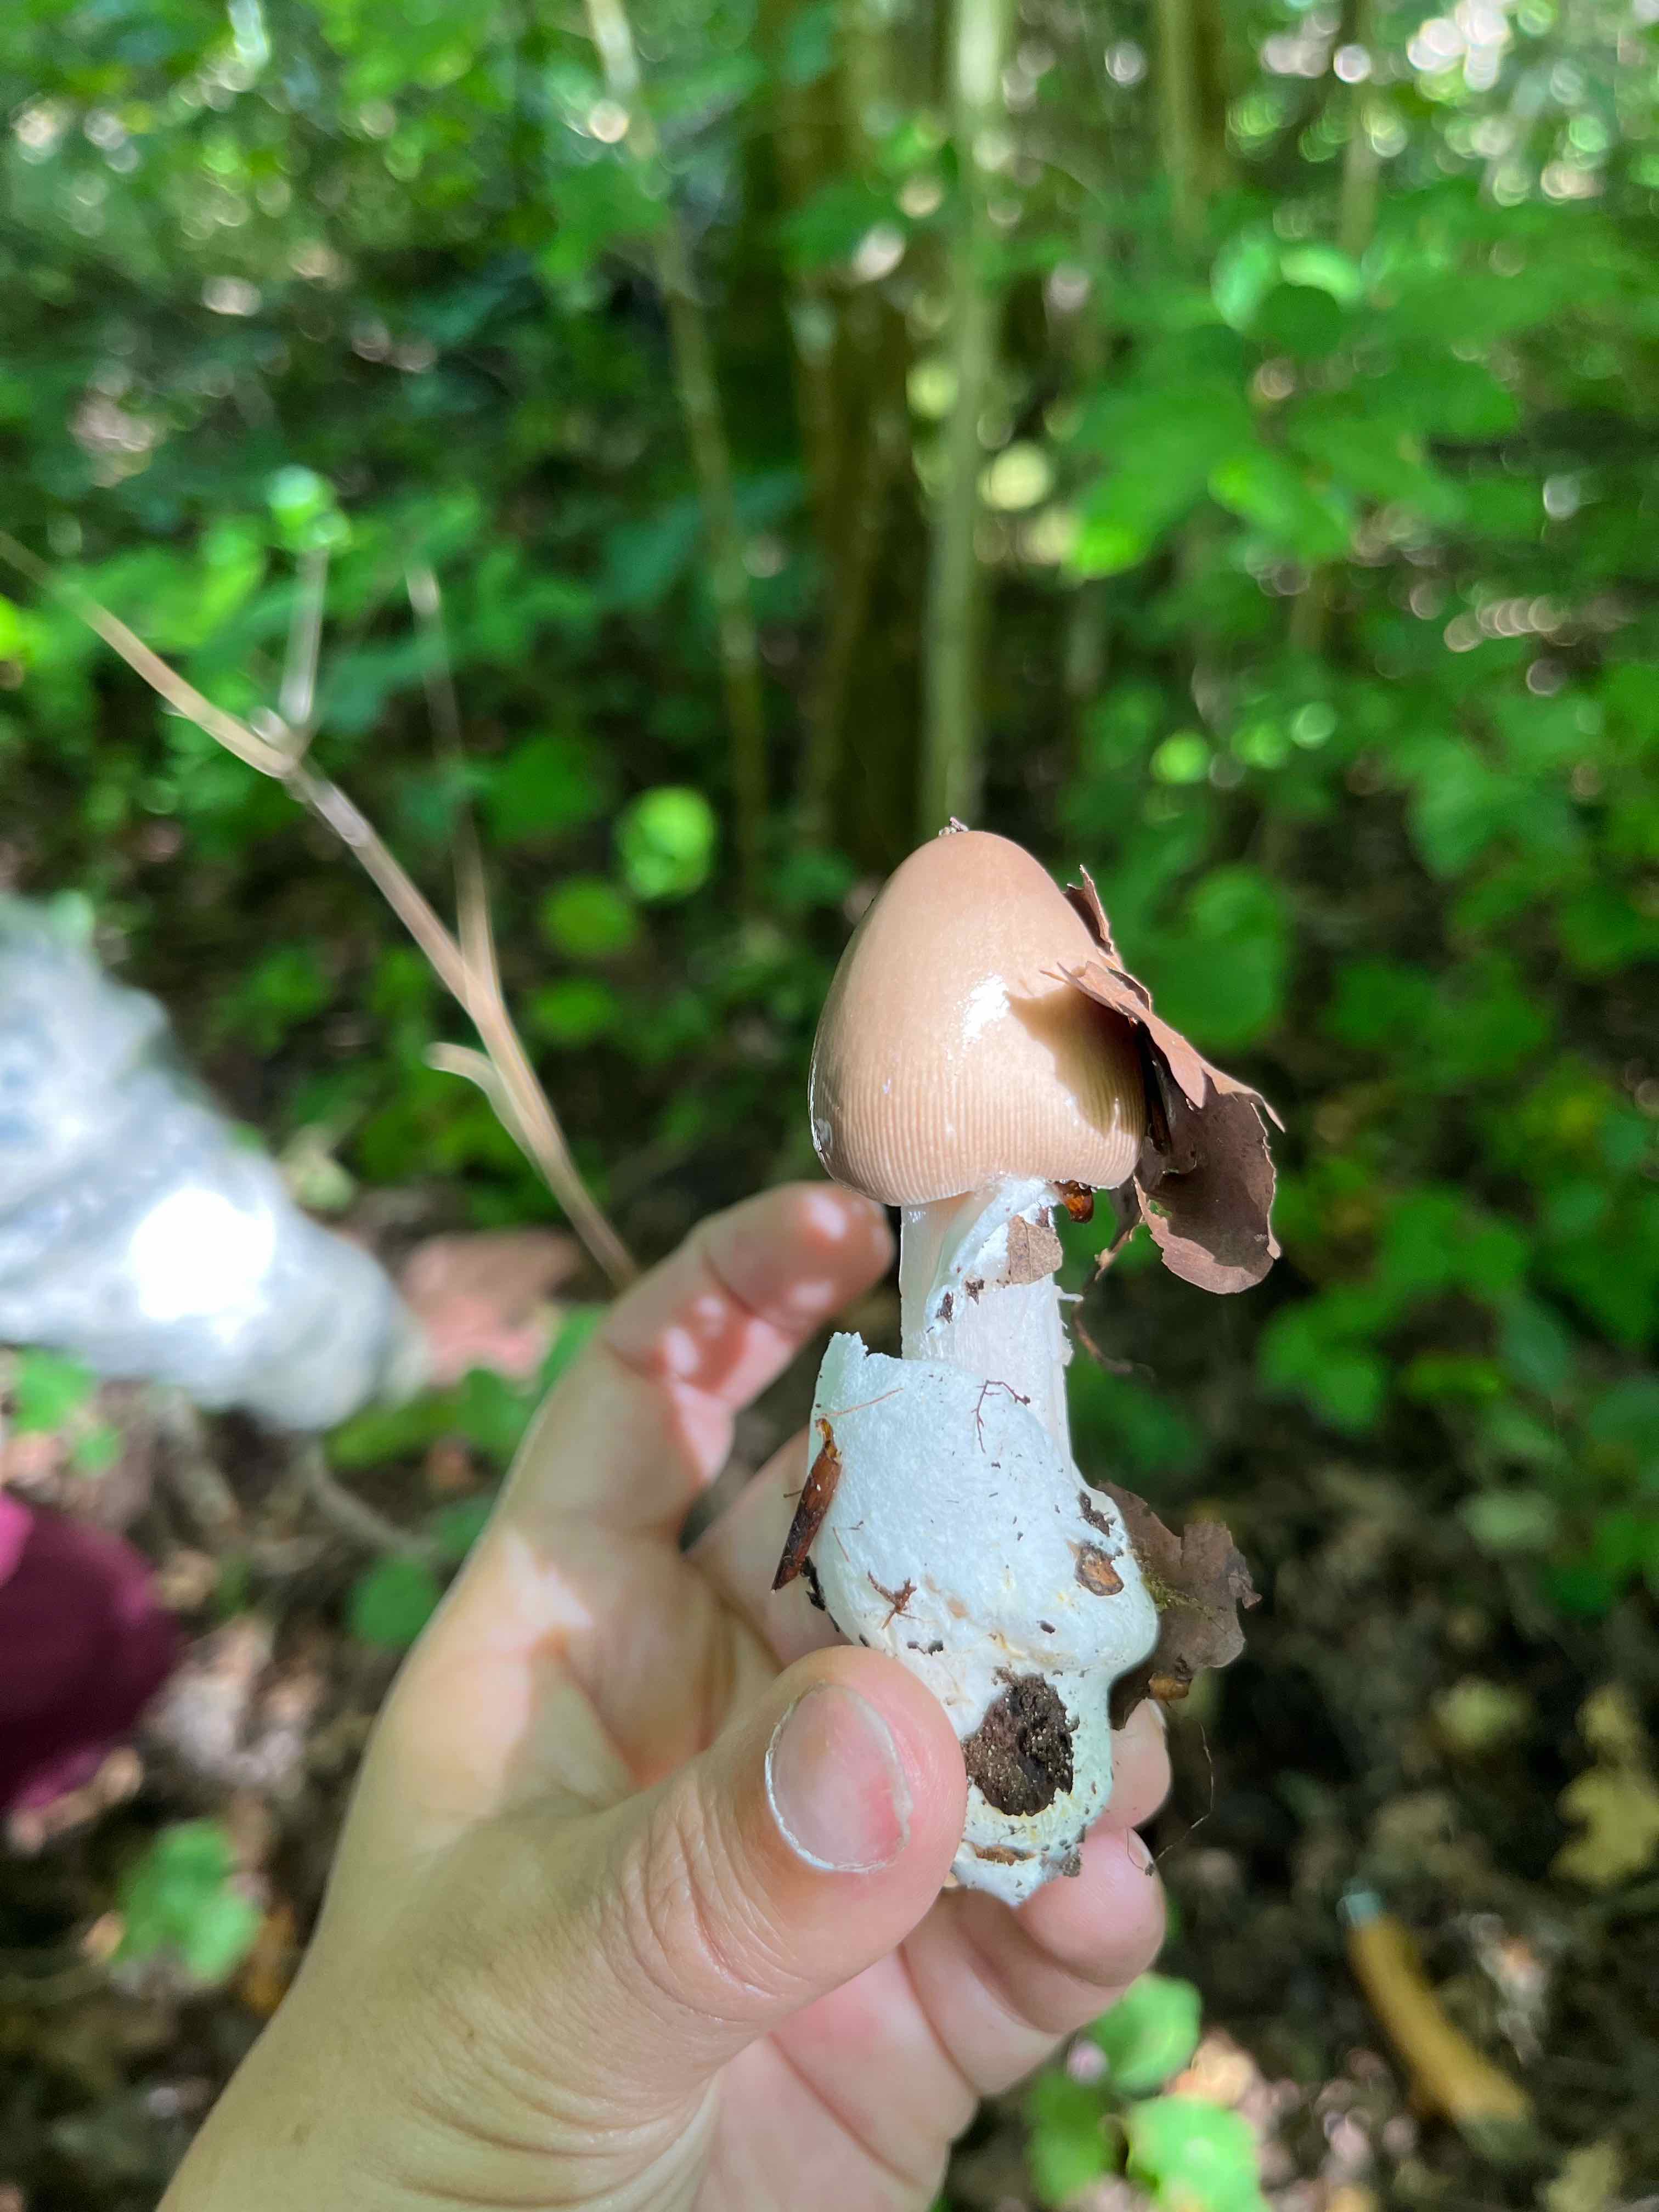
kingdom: Fungi
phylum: Basidiomycota
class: Agaricomycetes
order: Agaricales
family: Amanitaceae
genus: Amanita
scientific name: Amanita
